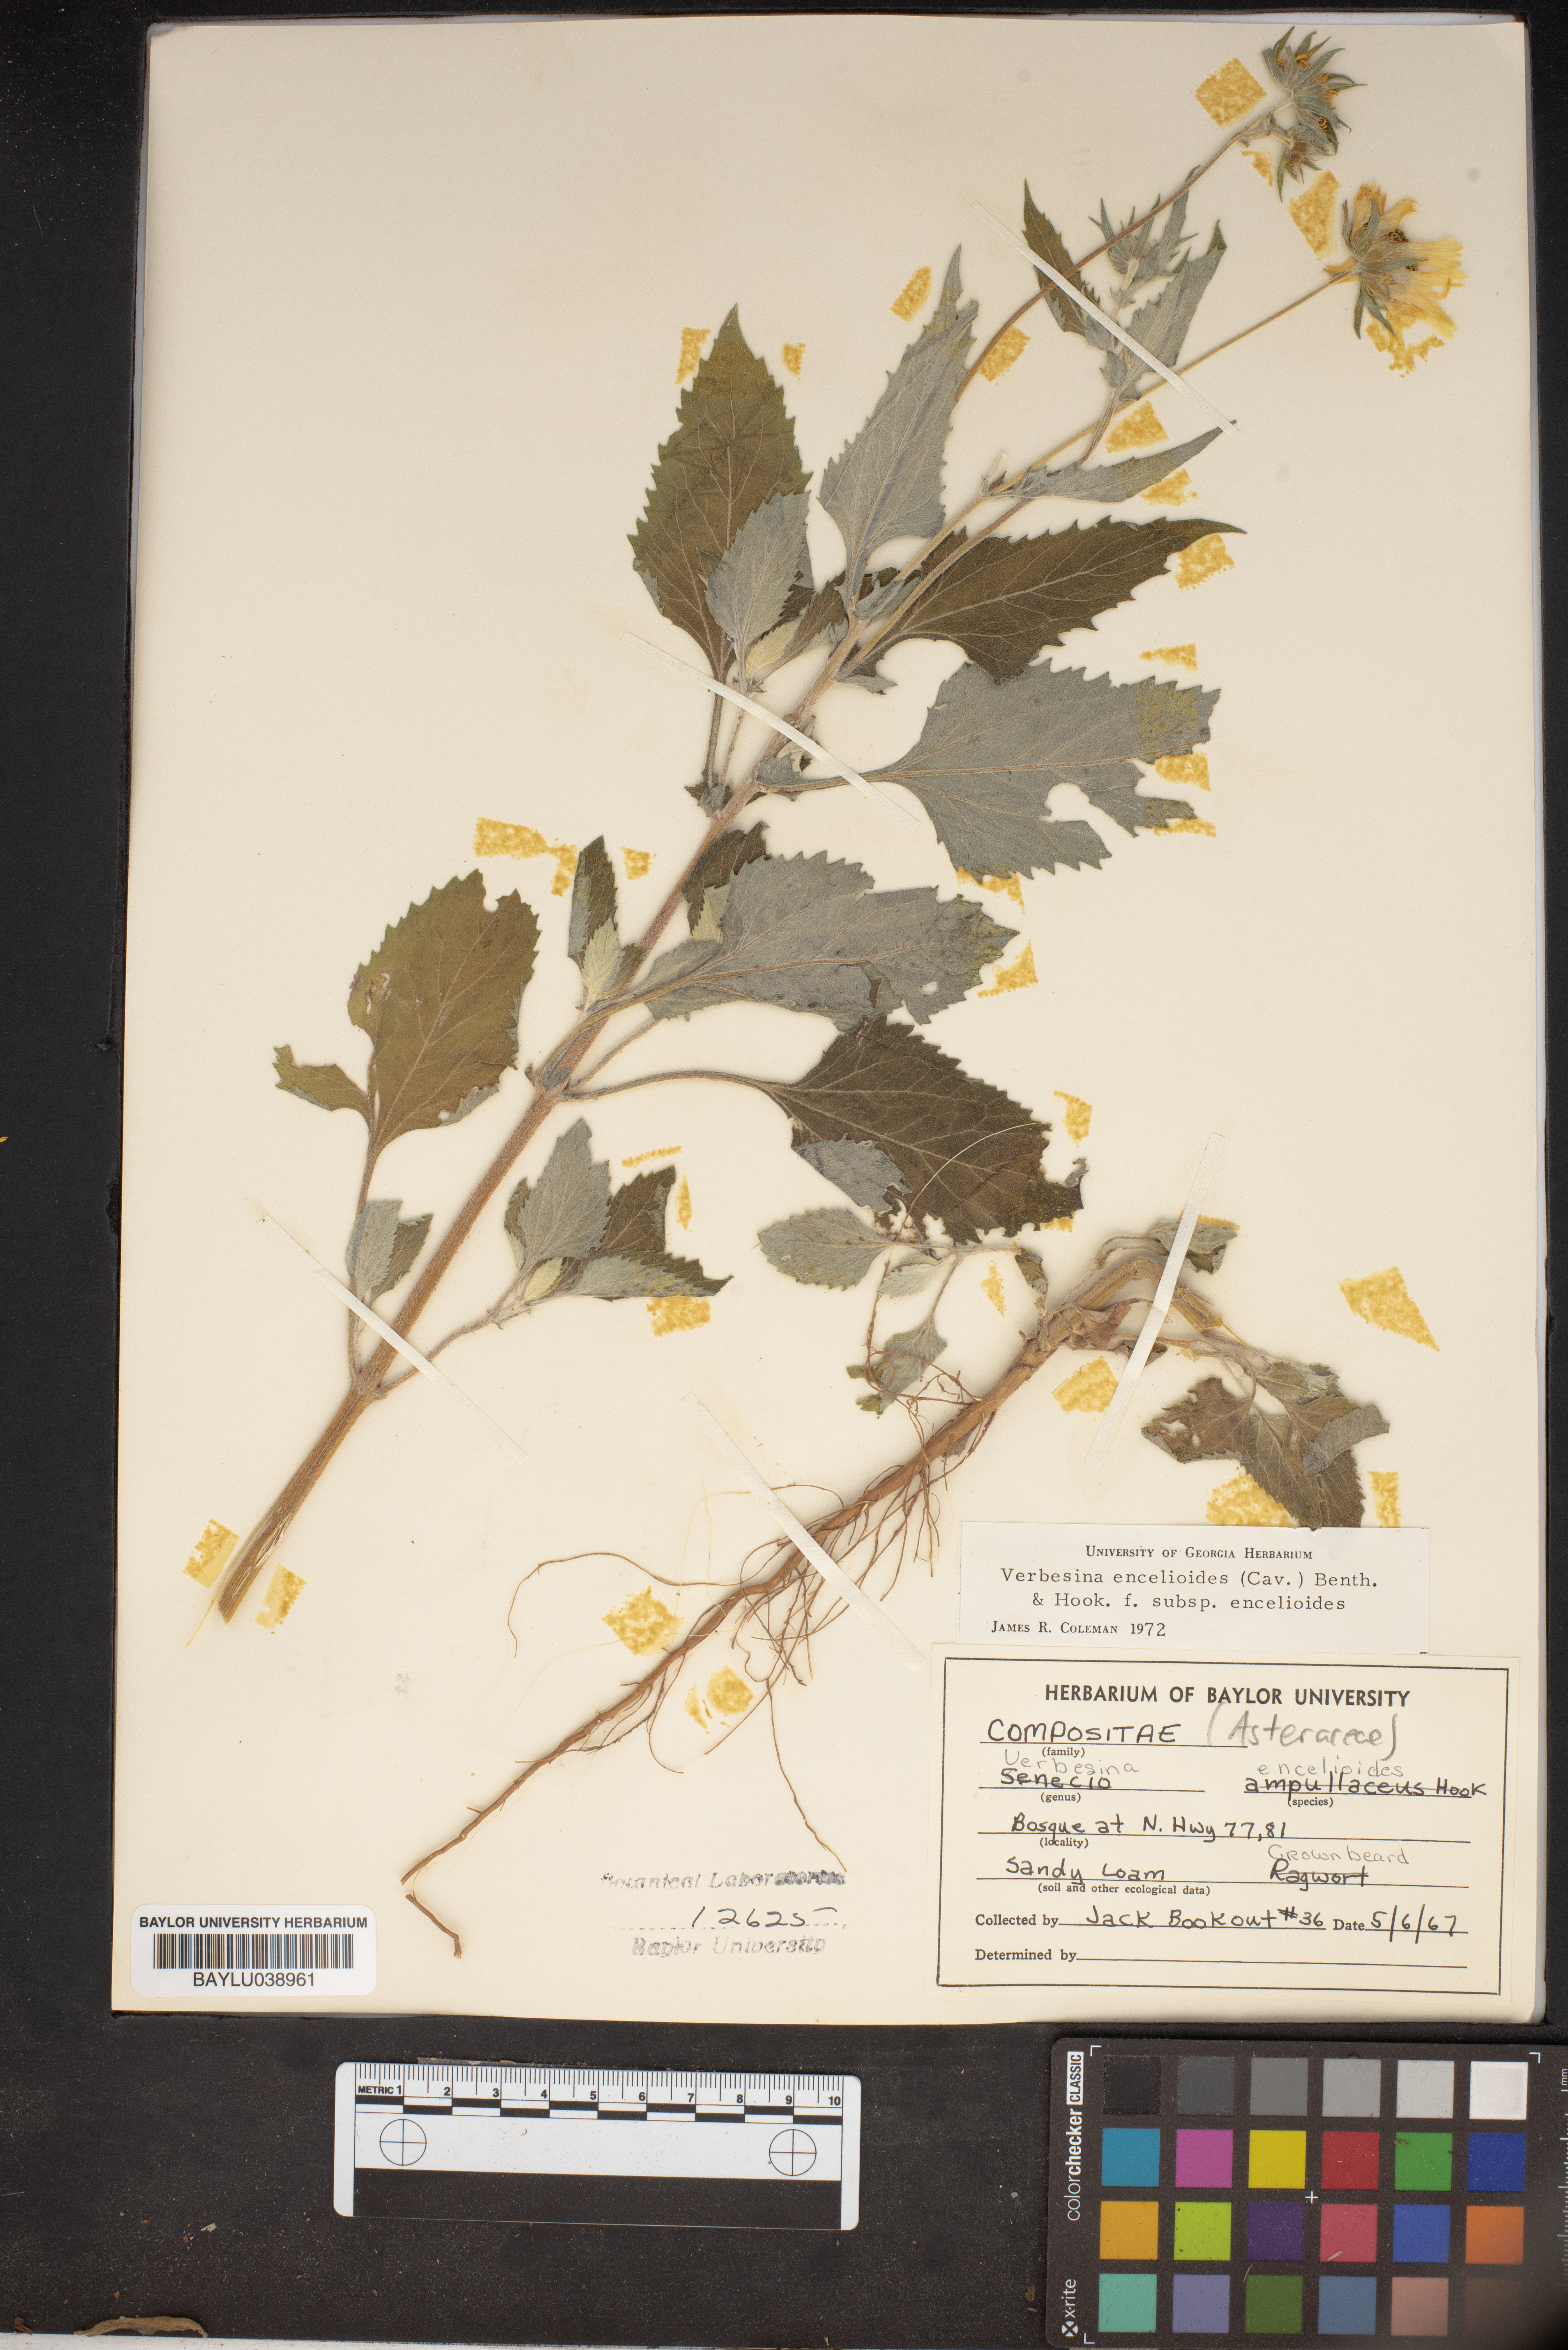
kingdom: Plantae
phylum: Tracheophyta
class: Magnoliopsida
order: Asterales
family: Asteraceae
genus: Verbesina
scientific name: Verbesina encelioides
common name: Golden crownbeard
